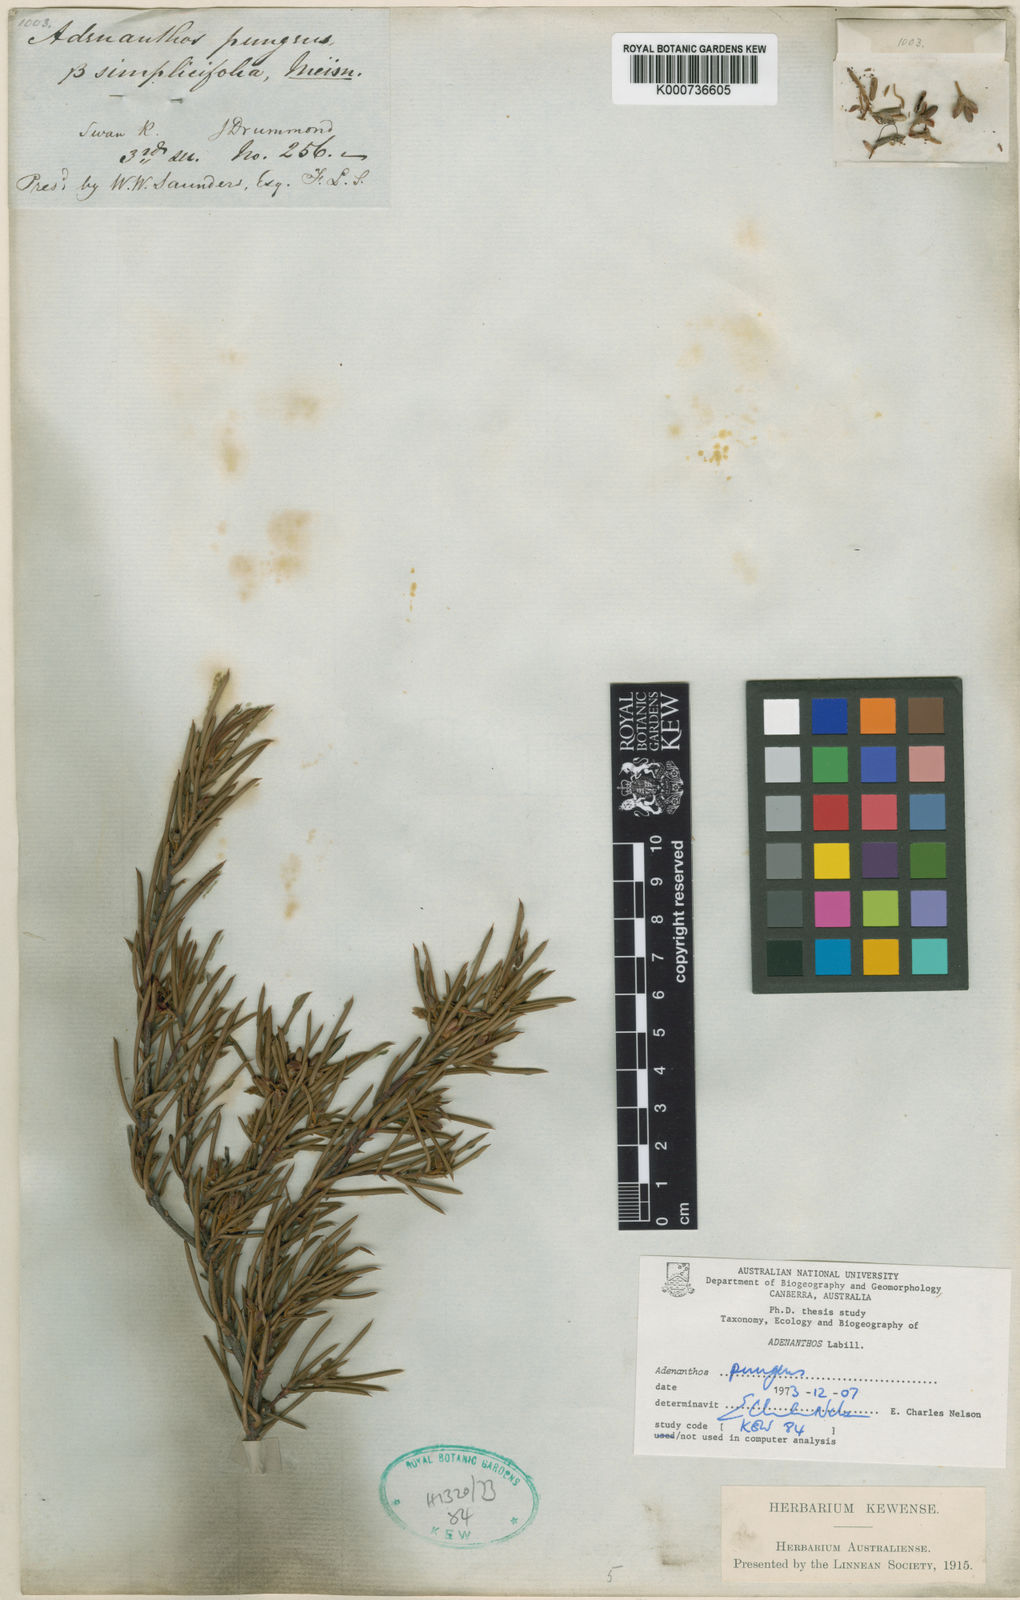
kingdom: Plantae
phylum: Tracheophyta
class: Magnoliopsida
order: Proteales
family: Proteaceae
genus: Adenanthos
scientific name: Adenanthos pungens
